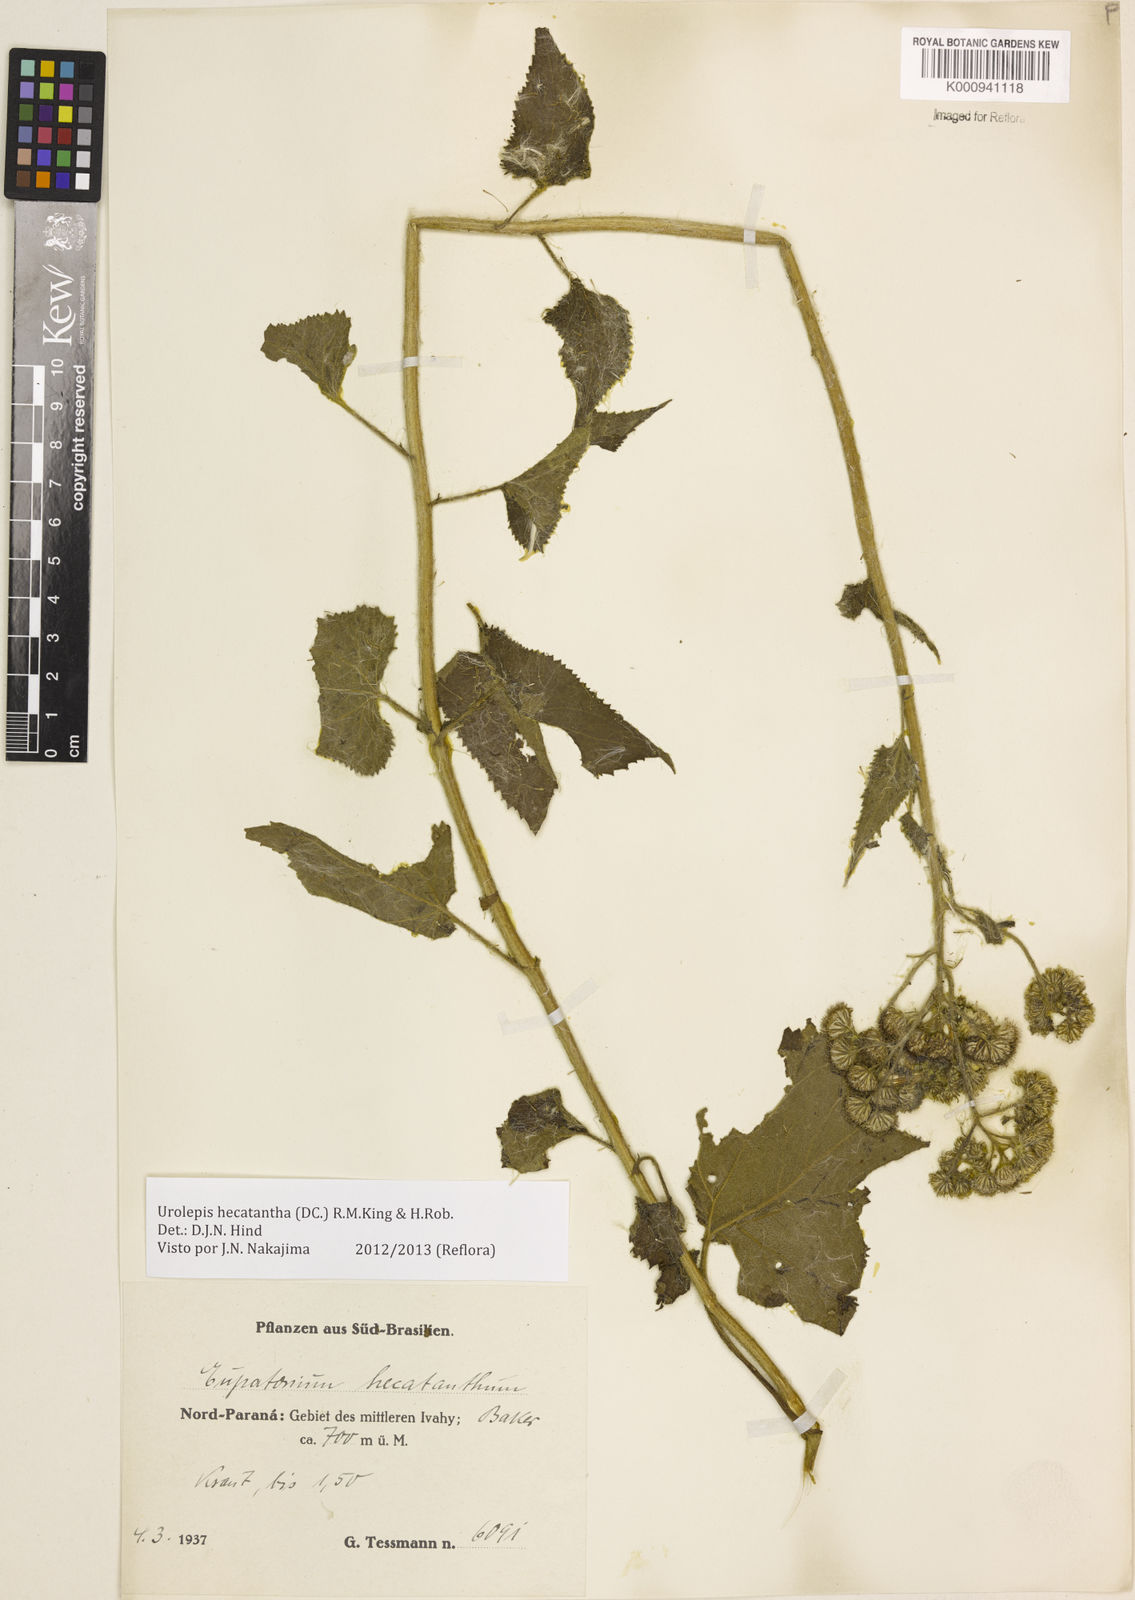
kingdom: Plantae
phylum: Tracheophyta
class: Magnoliopsida
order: Asterales
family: Asteraceae
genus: Urolepis
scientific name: Urolepis hecatantha
